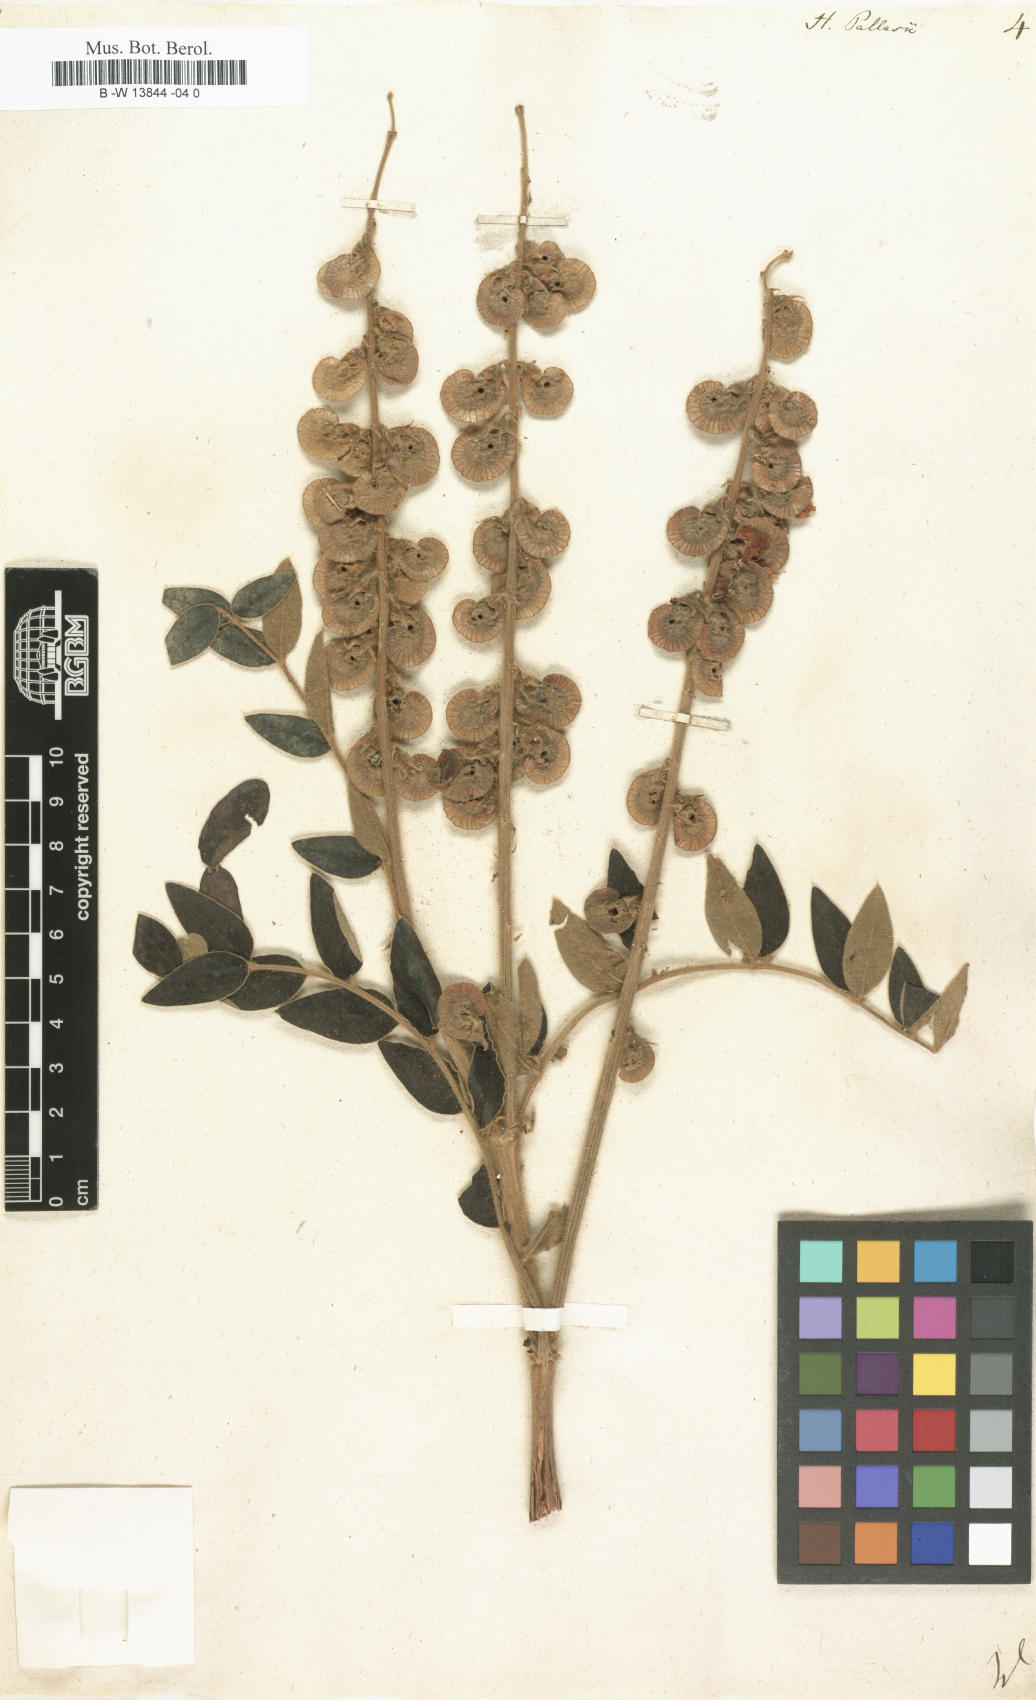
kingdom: Plantae
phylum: Tracheophyta
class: Magnoliopsida
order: Fabales
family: Fabaceae
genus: Onobrychis
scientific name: Onobrychis pallasii
